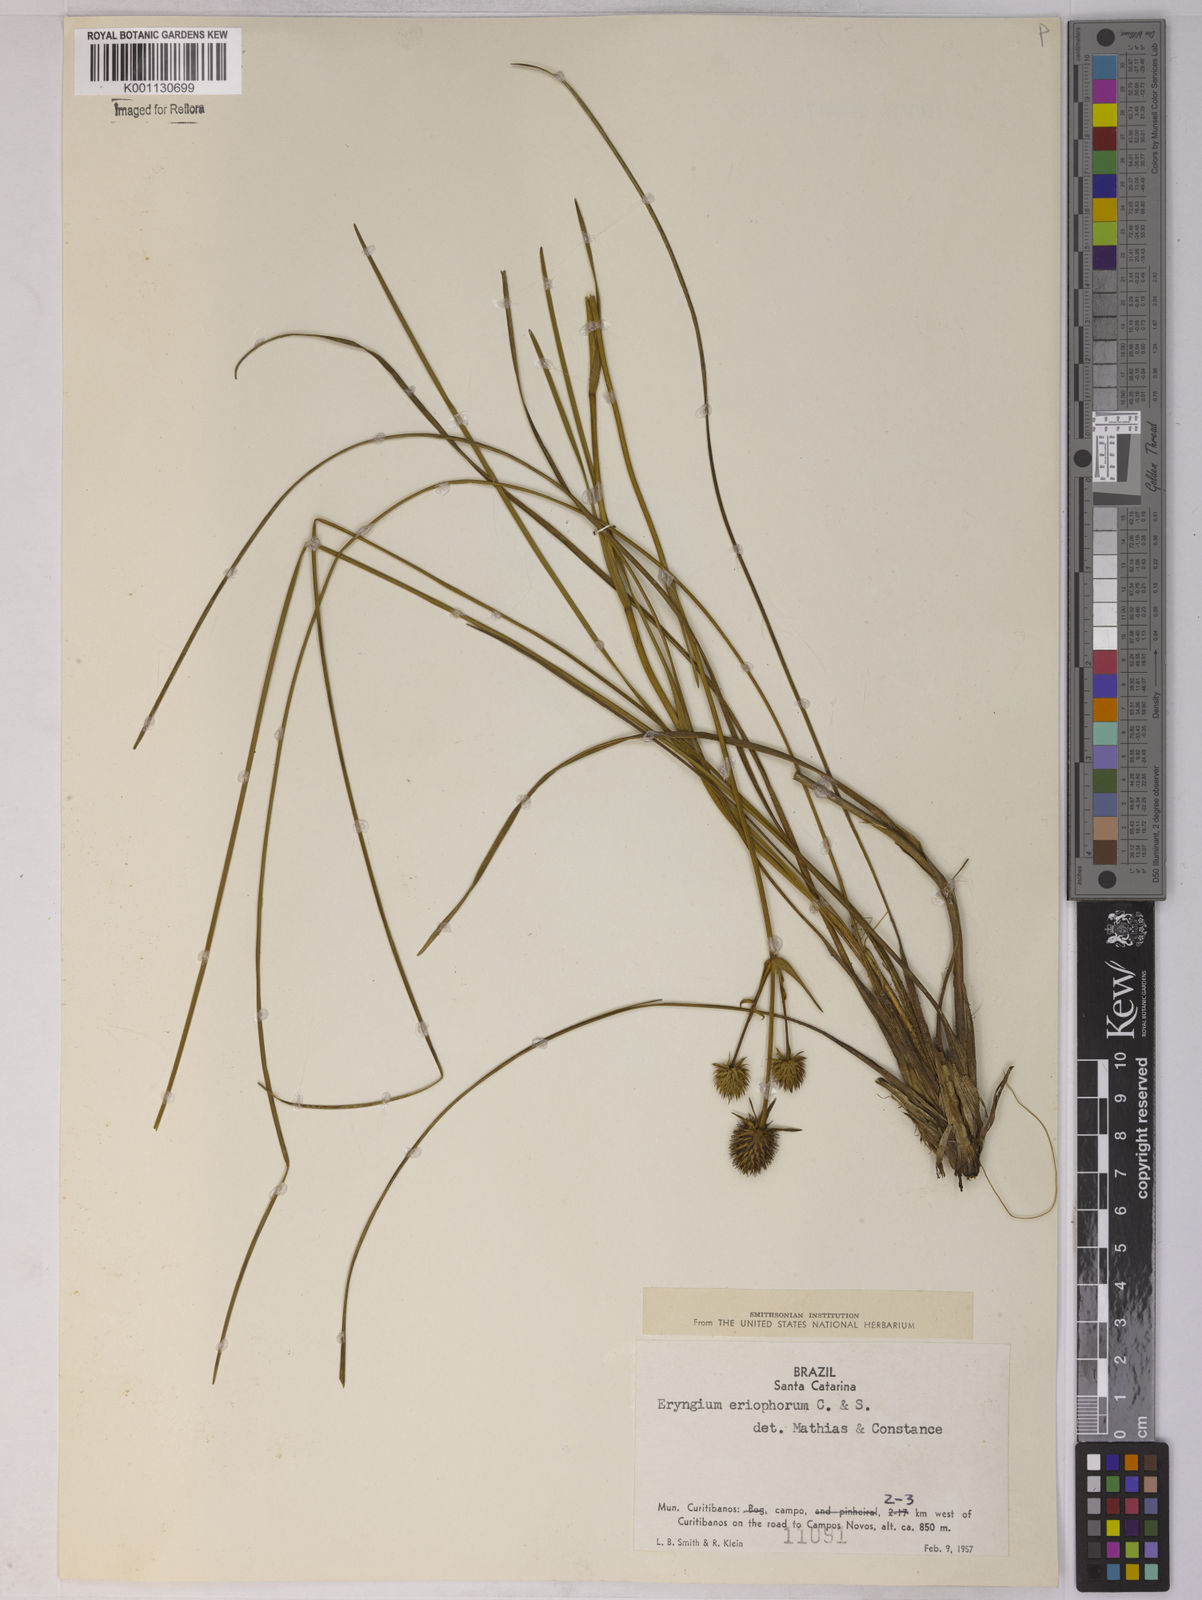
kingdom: Plantae
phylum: Tracheophyta
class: Magnoliopsida
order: Apiales
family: Apiaceae
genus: Eryngium
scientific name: Eryngium eriophorum
